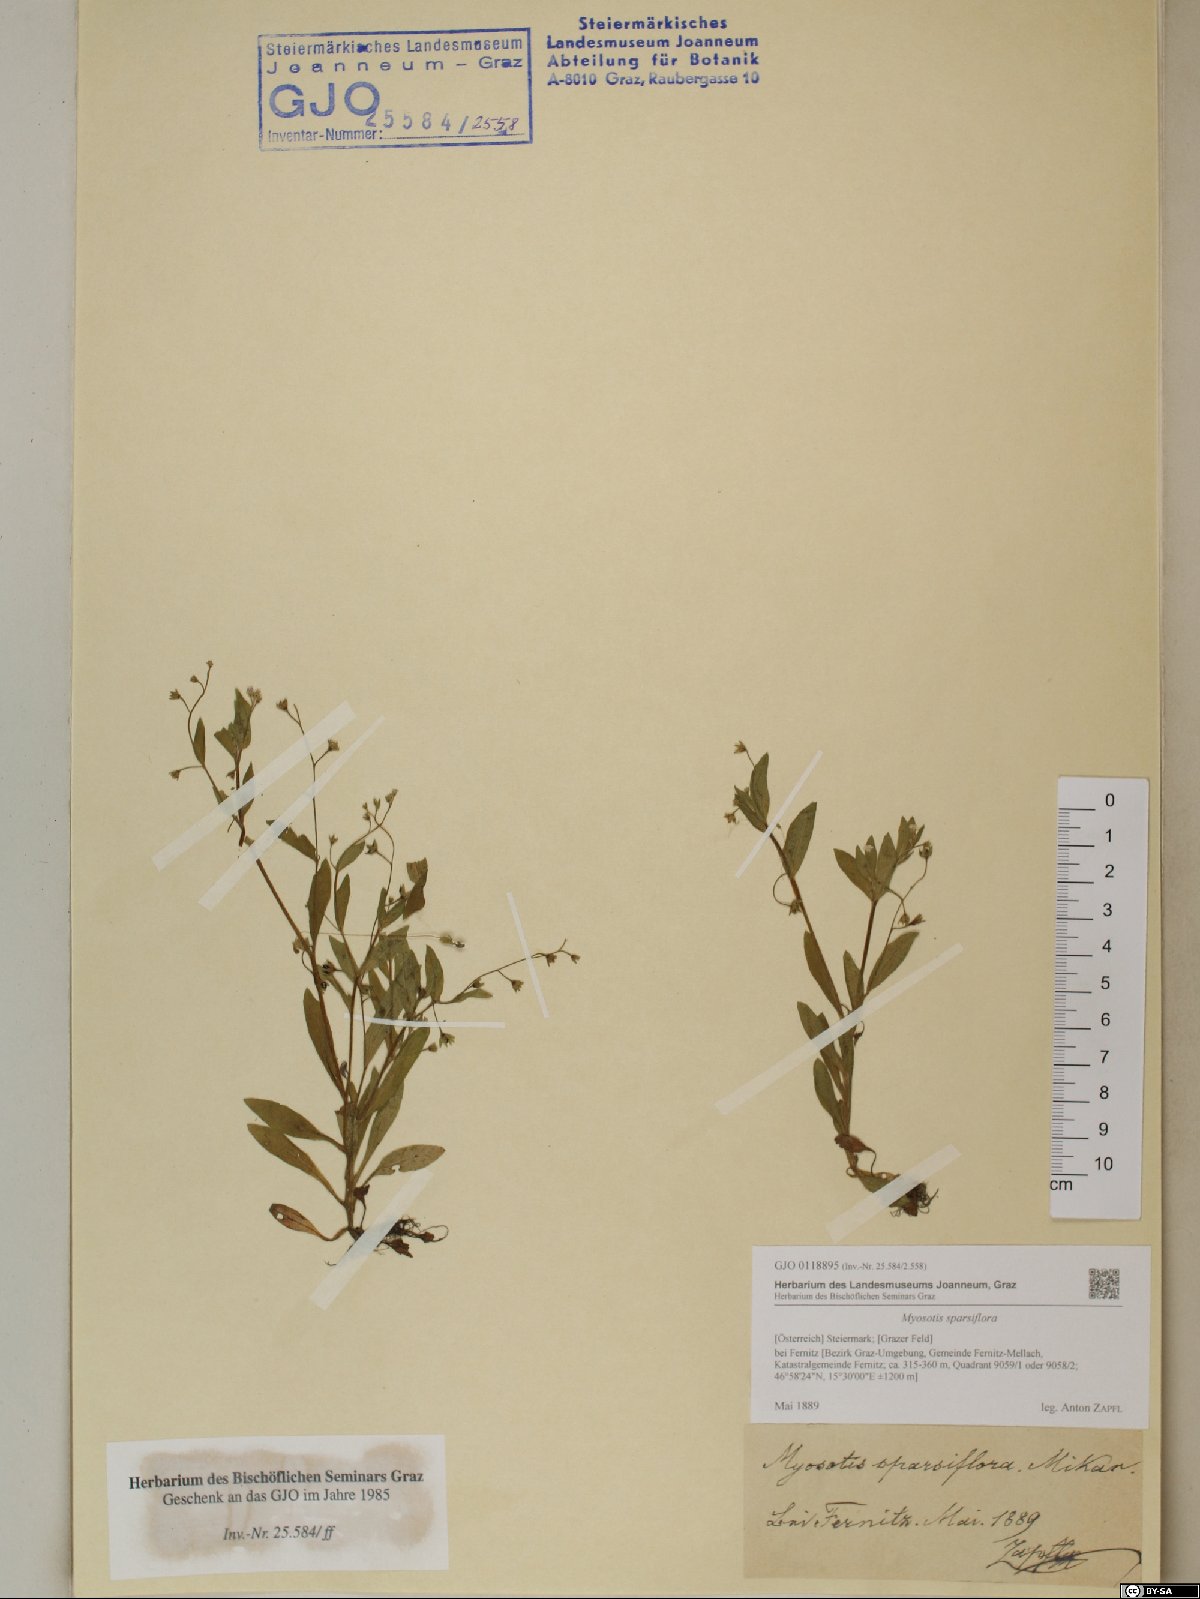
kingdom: Plantae
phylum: Tracheophyta
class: Magnoliopsida
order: Boraginales
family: Boraginaceae
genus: Myosotis
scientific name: Myosotis sparsiflora
